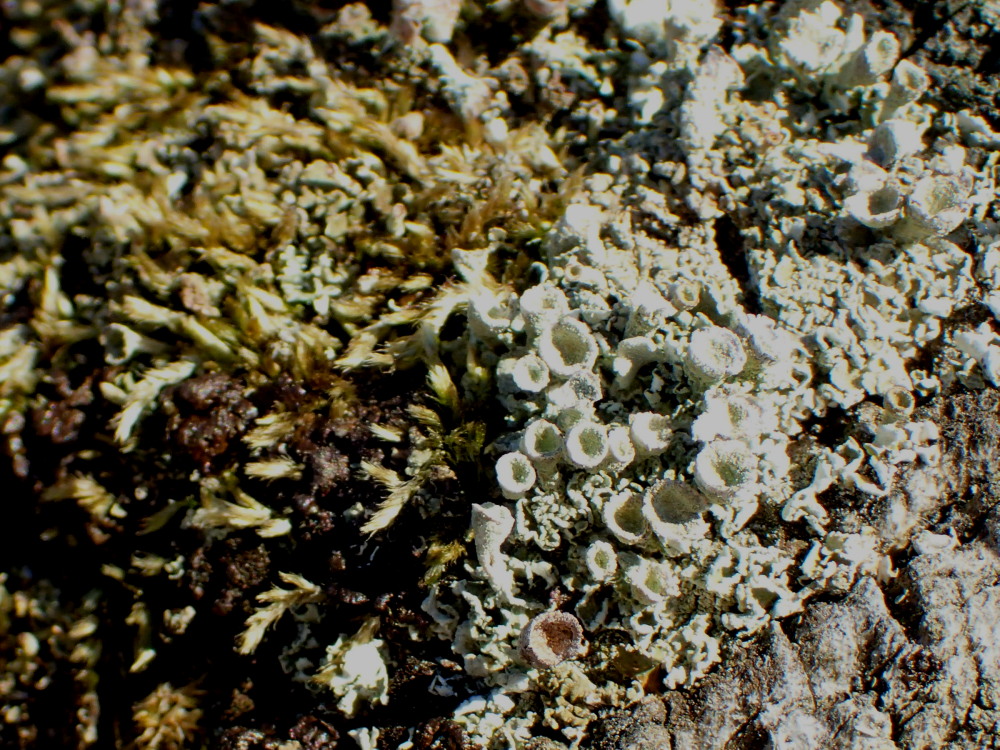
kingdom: Fungi
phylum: Ascomycota
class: Lecanoromycetes
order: Lecanorales
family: Cladoniaceae
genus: Cladonia
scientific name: Cladonia humilis
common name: lav bægerlav
